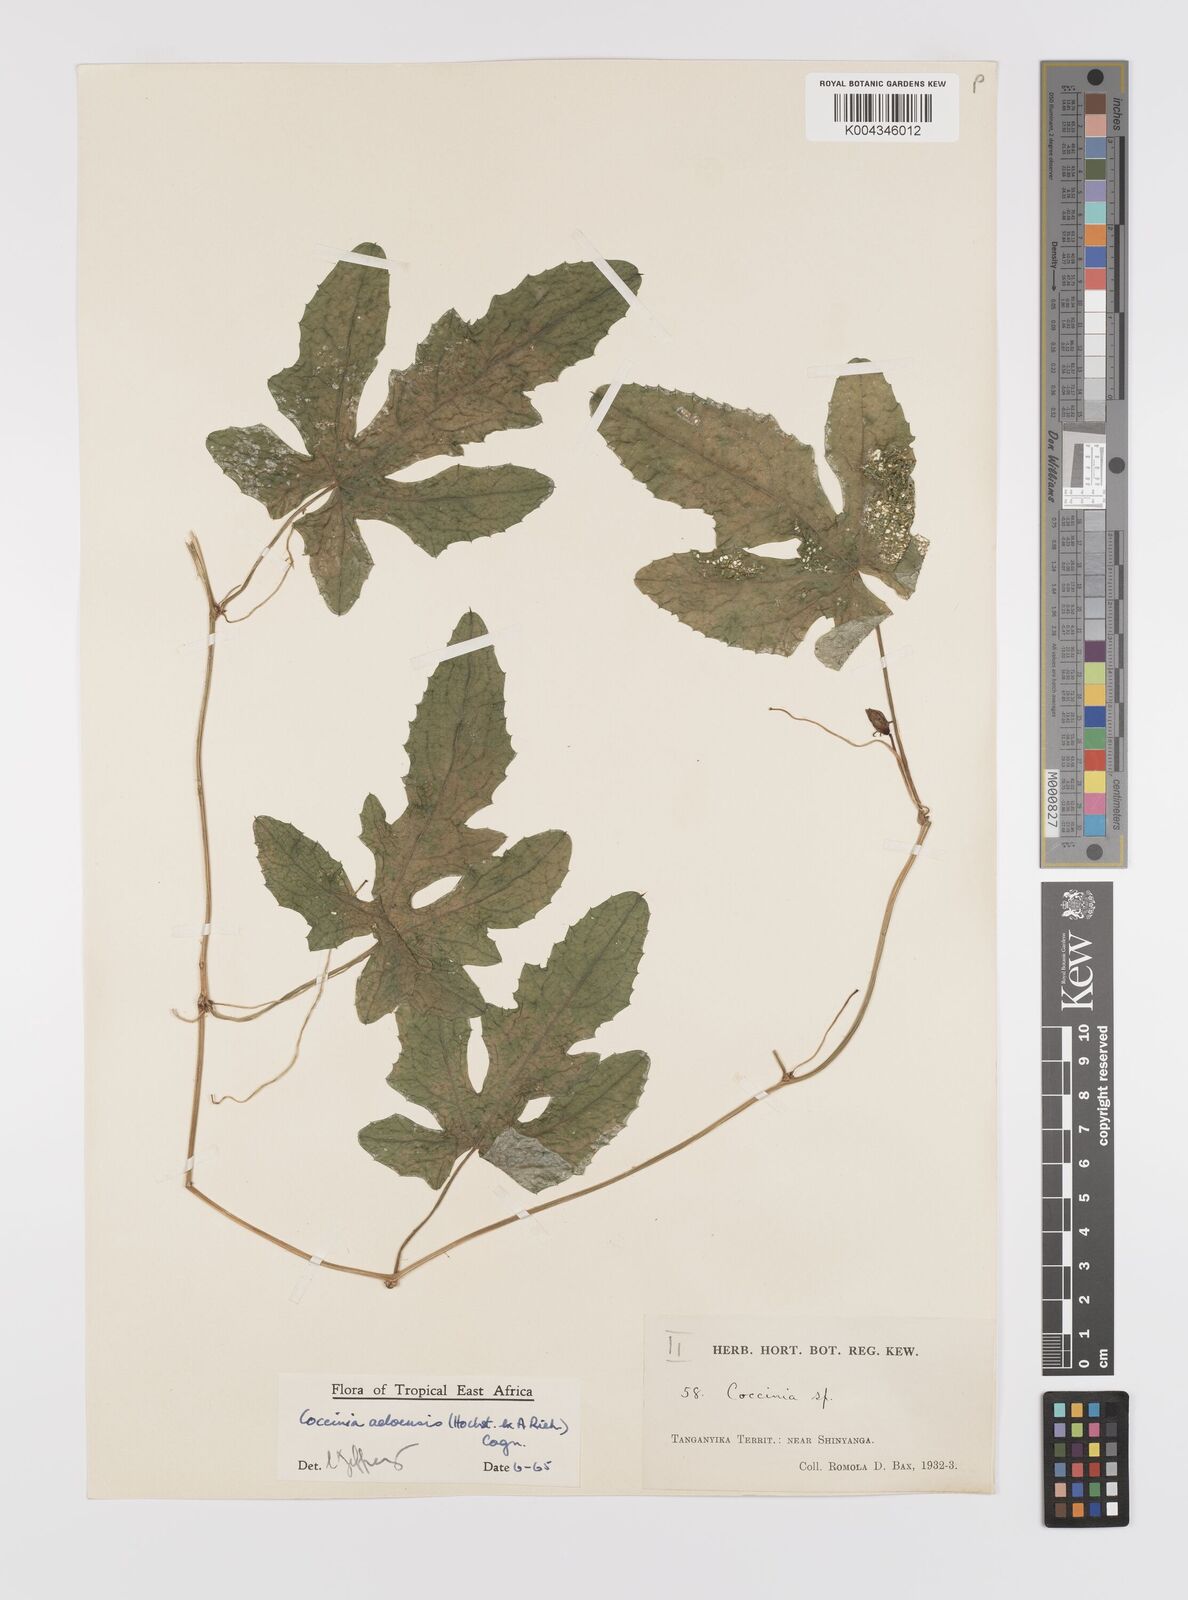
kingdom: Plantae
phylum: Tracheophyta
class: Magnoliopsida
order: Cucurbitales
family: Cucurbitaceae
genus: Coccinia
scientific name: Coccinia adoensis
